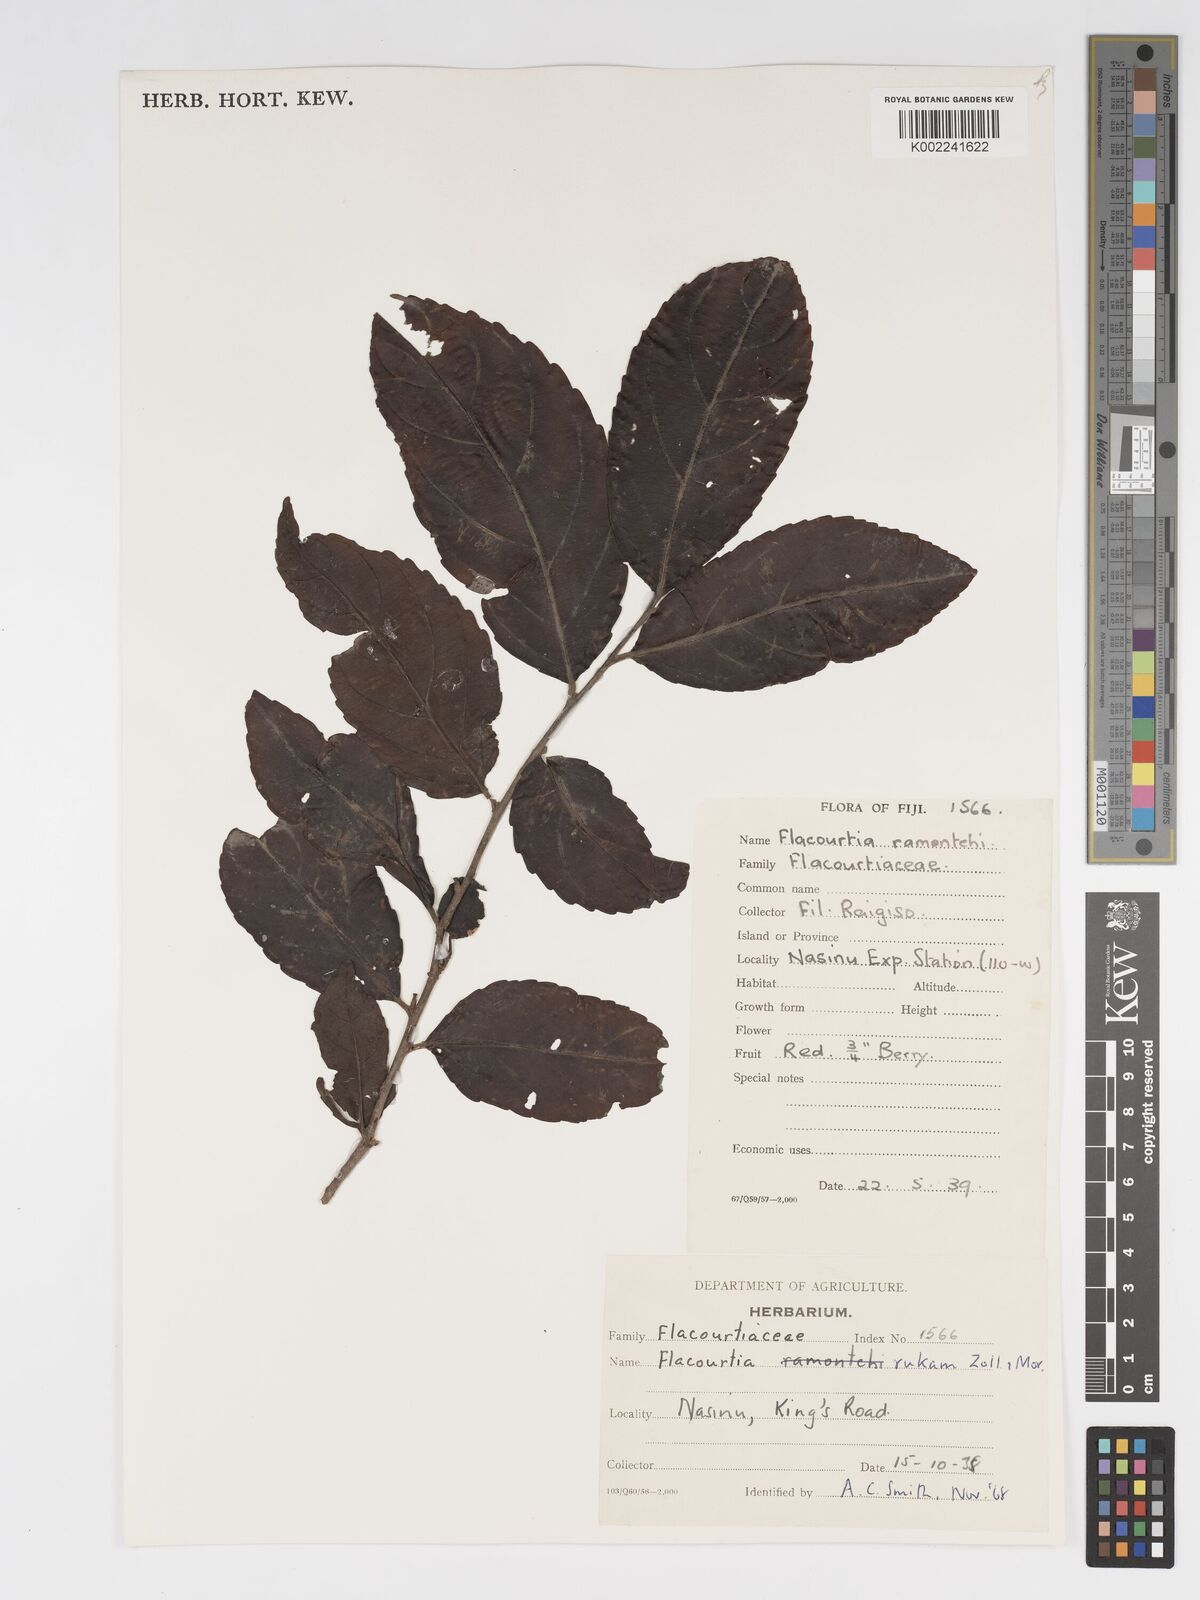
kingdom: Plantae
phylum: Tracheophyta
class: Magnoliopsida
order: Malpighiales
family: Salicaceae
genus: Flacourtia
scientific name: Flacourtia rukam
